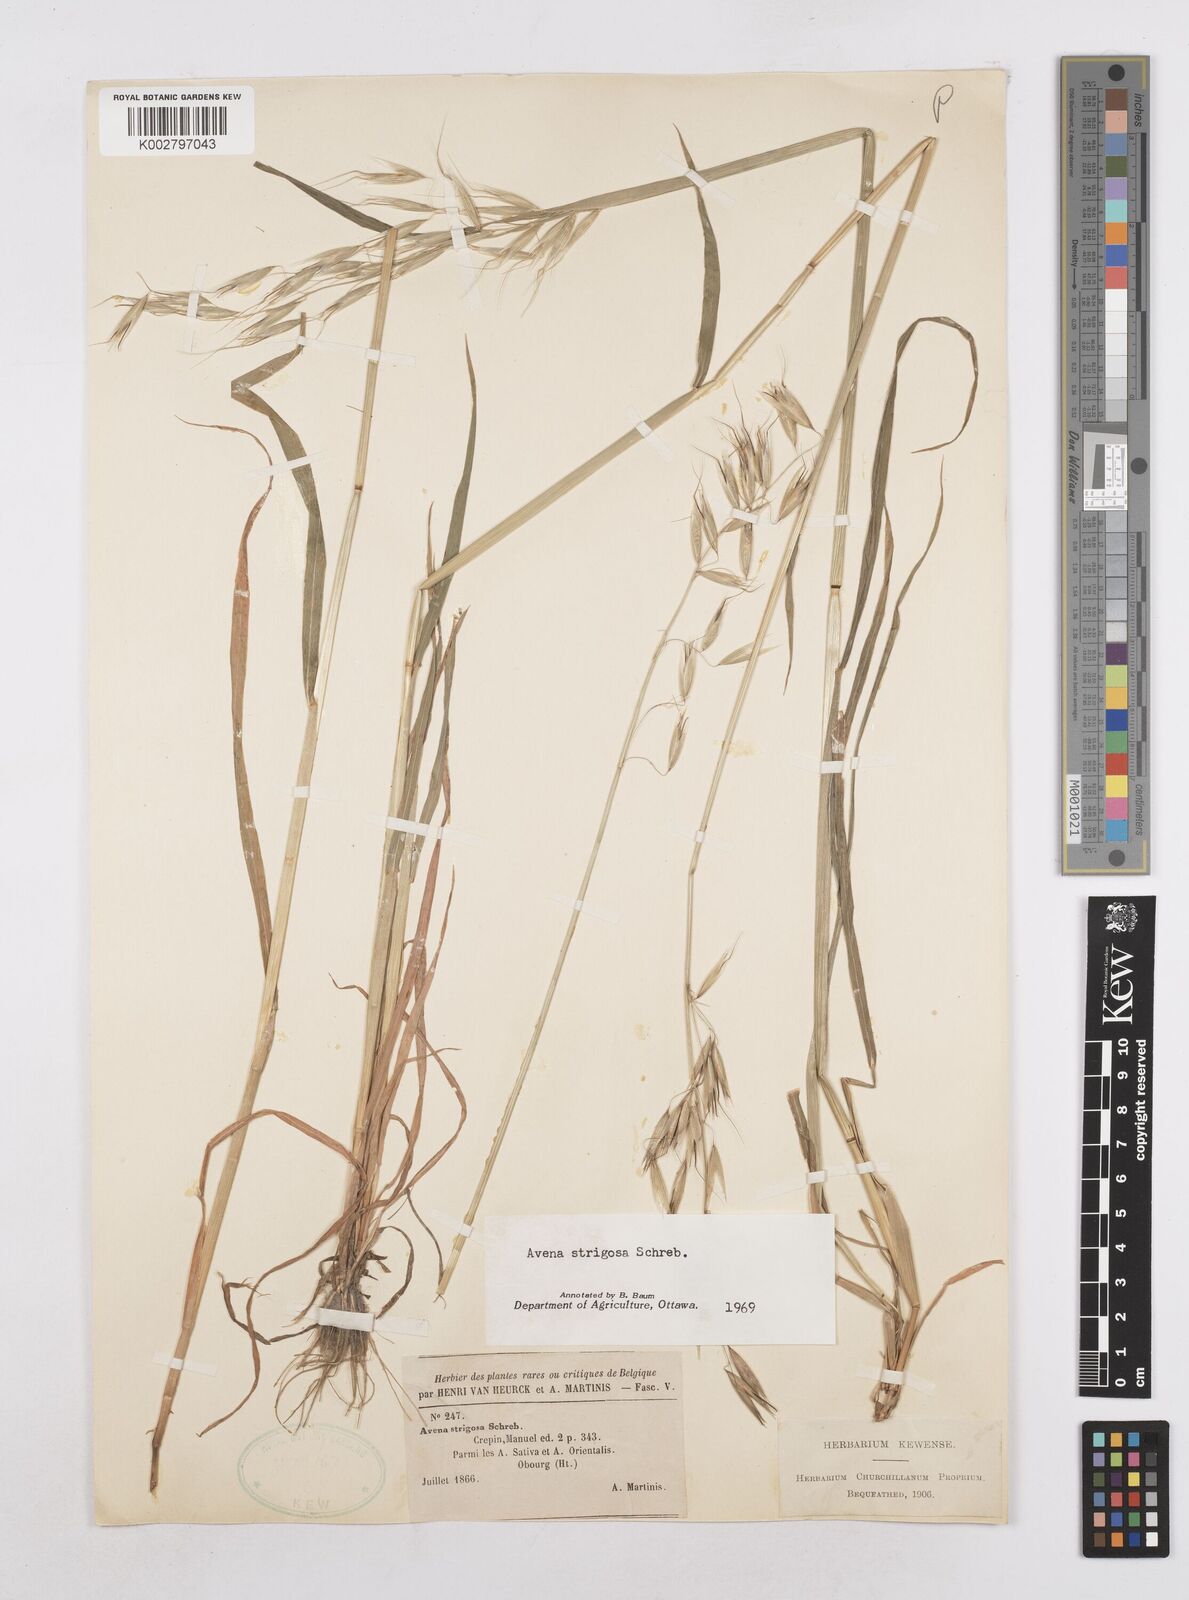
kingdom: Plantae
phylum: Tracheophyta
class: Liliopsida
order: Poales
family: Poaceae
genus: Avena
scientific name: Avena strigosa
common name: Bristle oat
